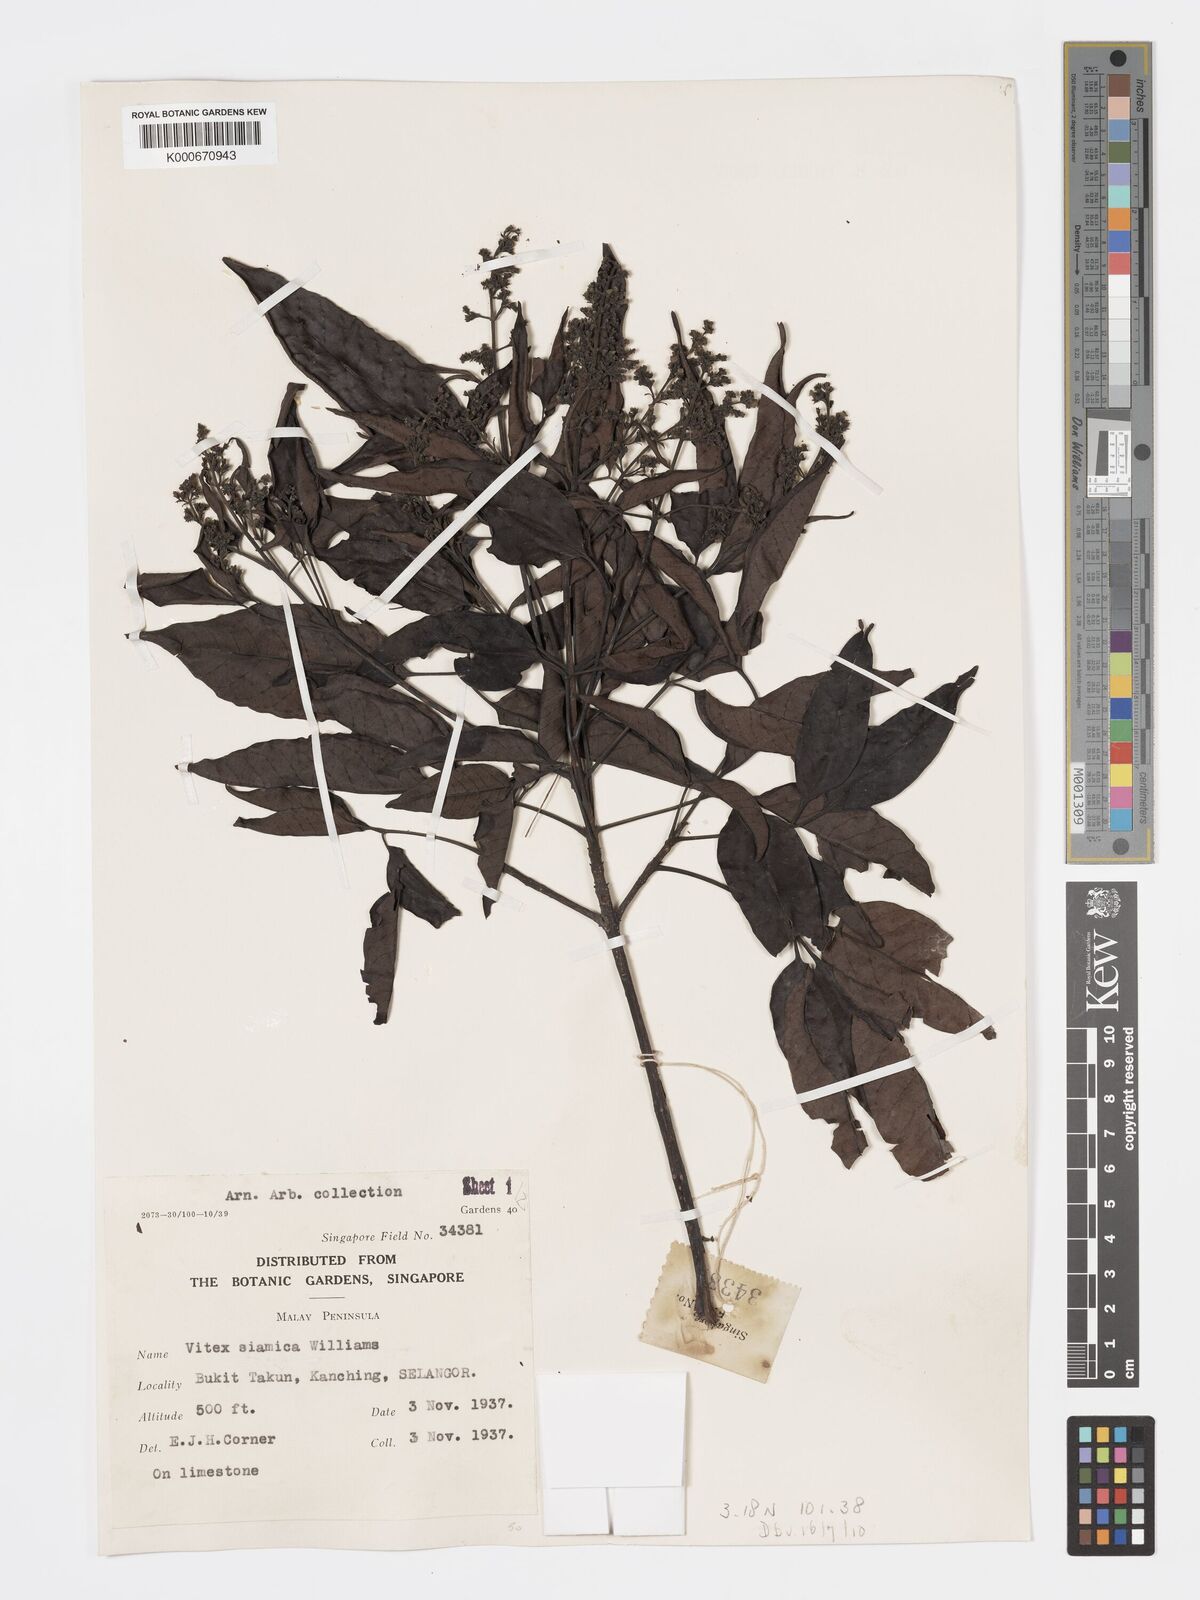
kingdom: Plantae
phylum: Tracheophyta
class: Magnoliopsida
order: Lamiales
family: Lamiaceae
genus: Vitex
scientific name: Vitex siamica
